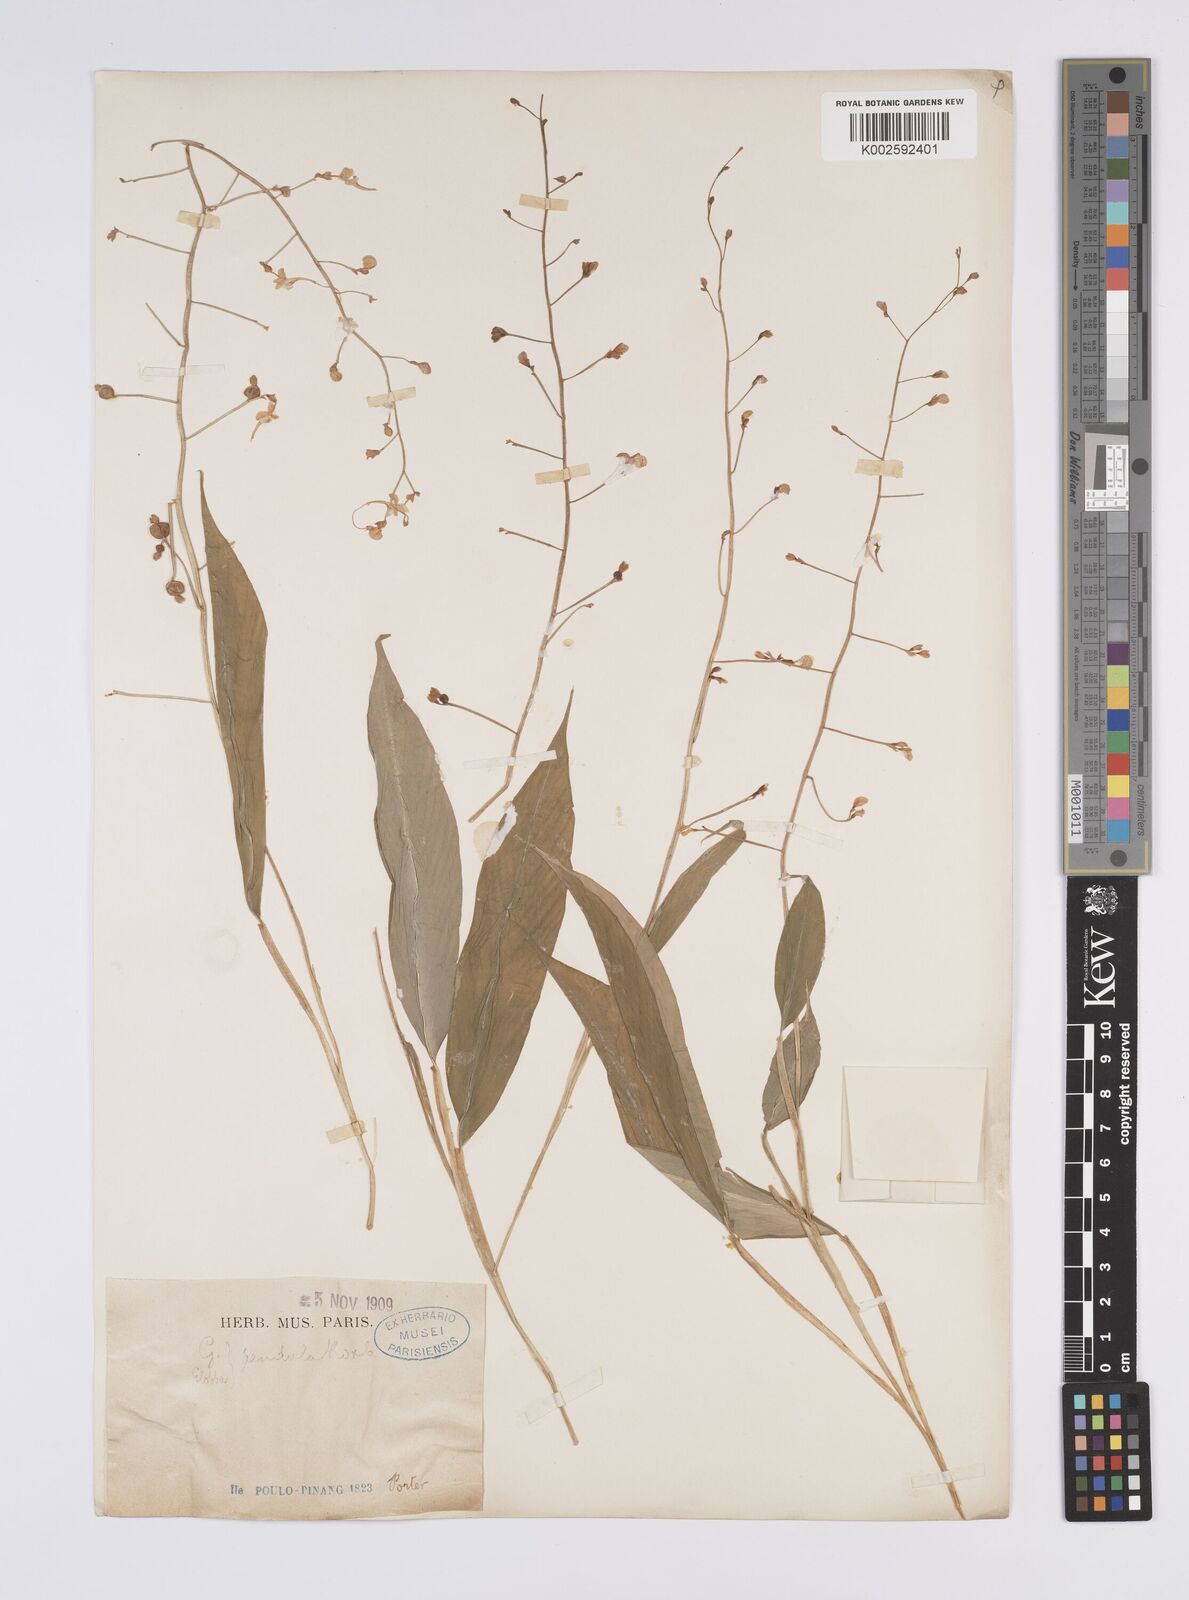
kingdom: Plantae
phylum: Tracheophyta
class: Liliopsida
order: Zingiberales
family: Zingiberaceae
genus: Globba
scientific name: Globba pendula
